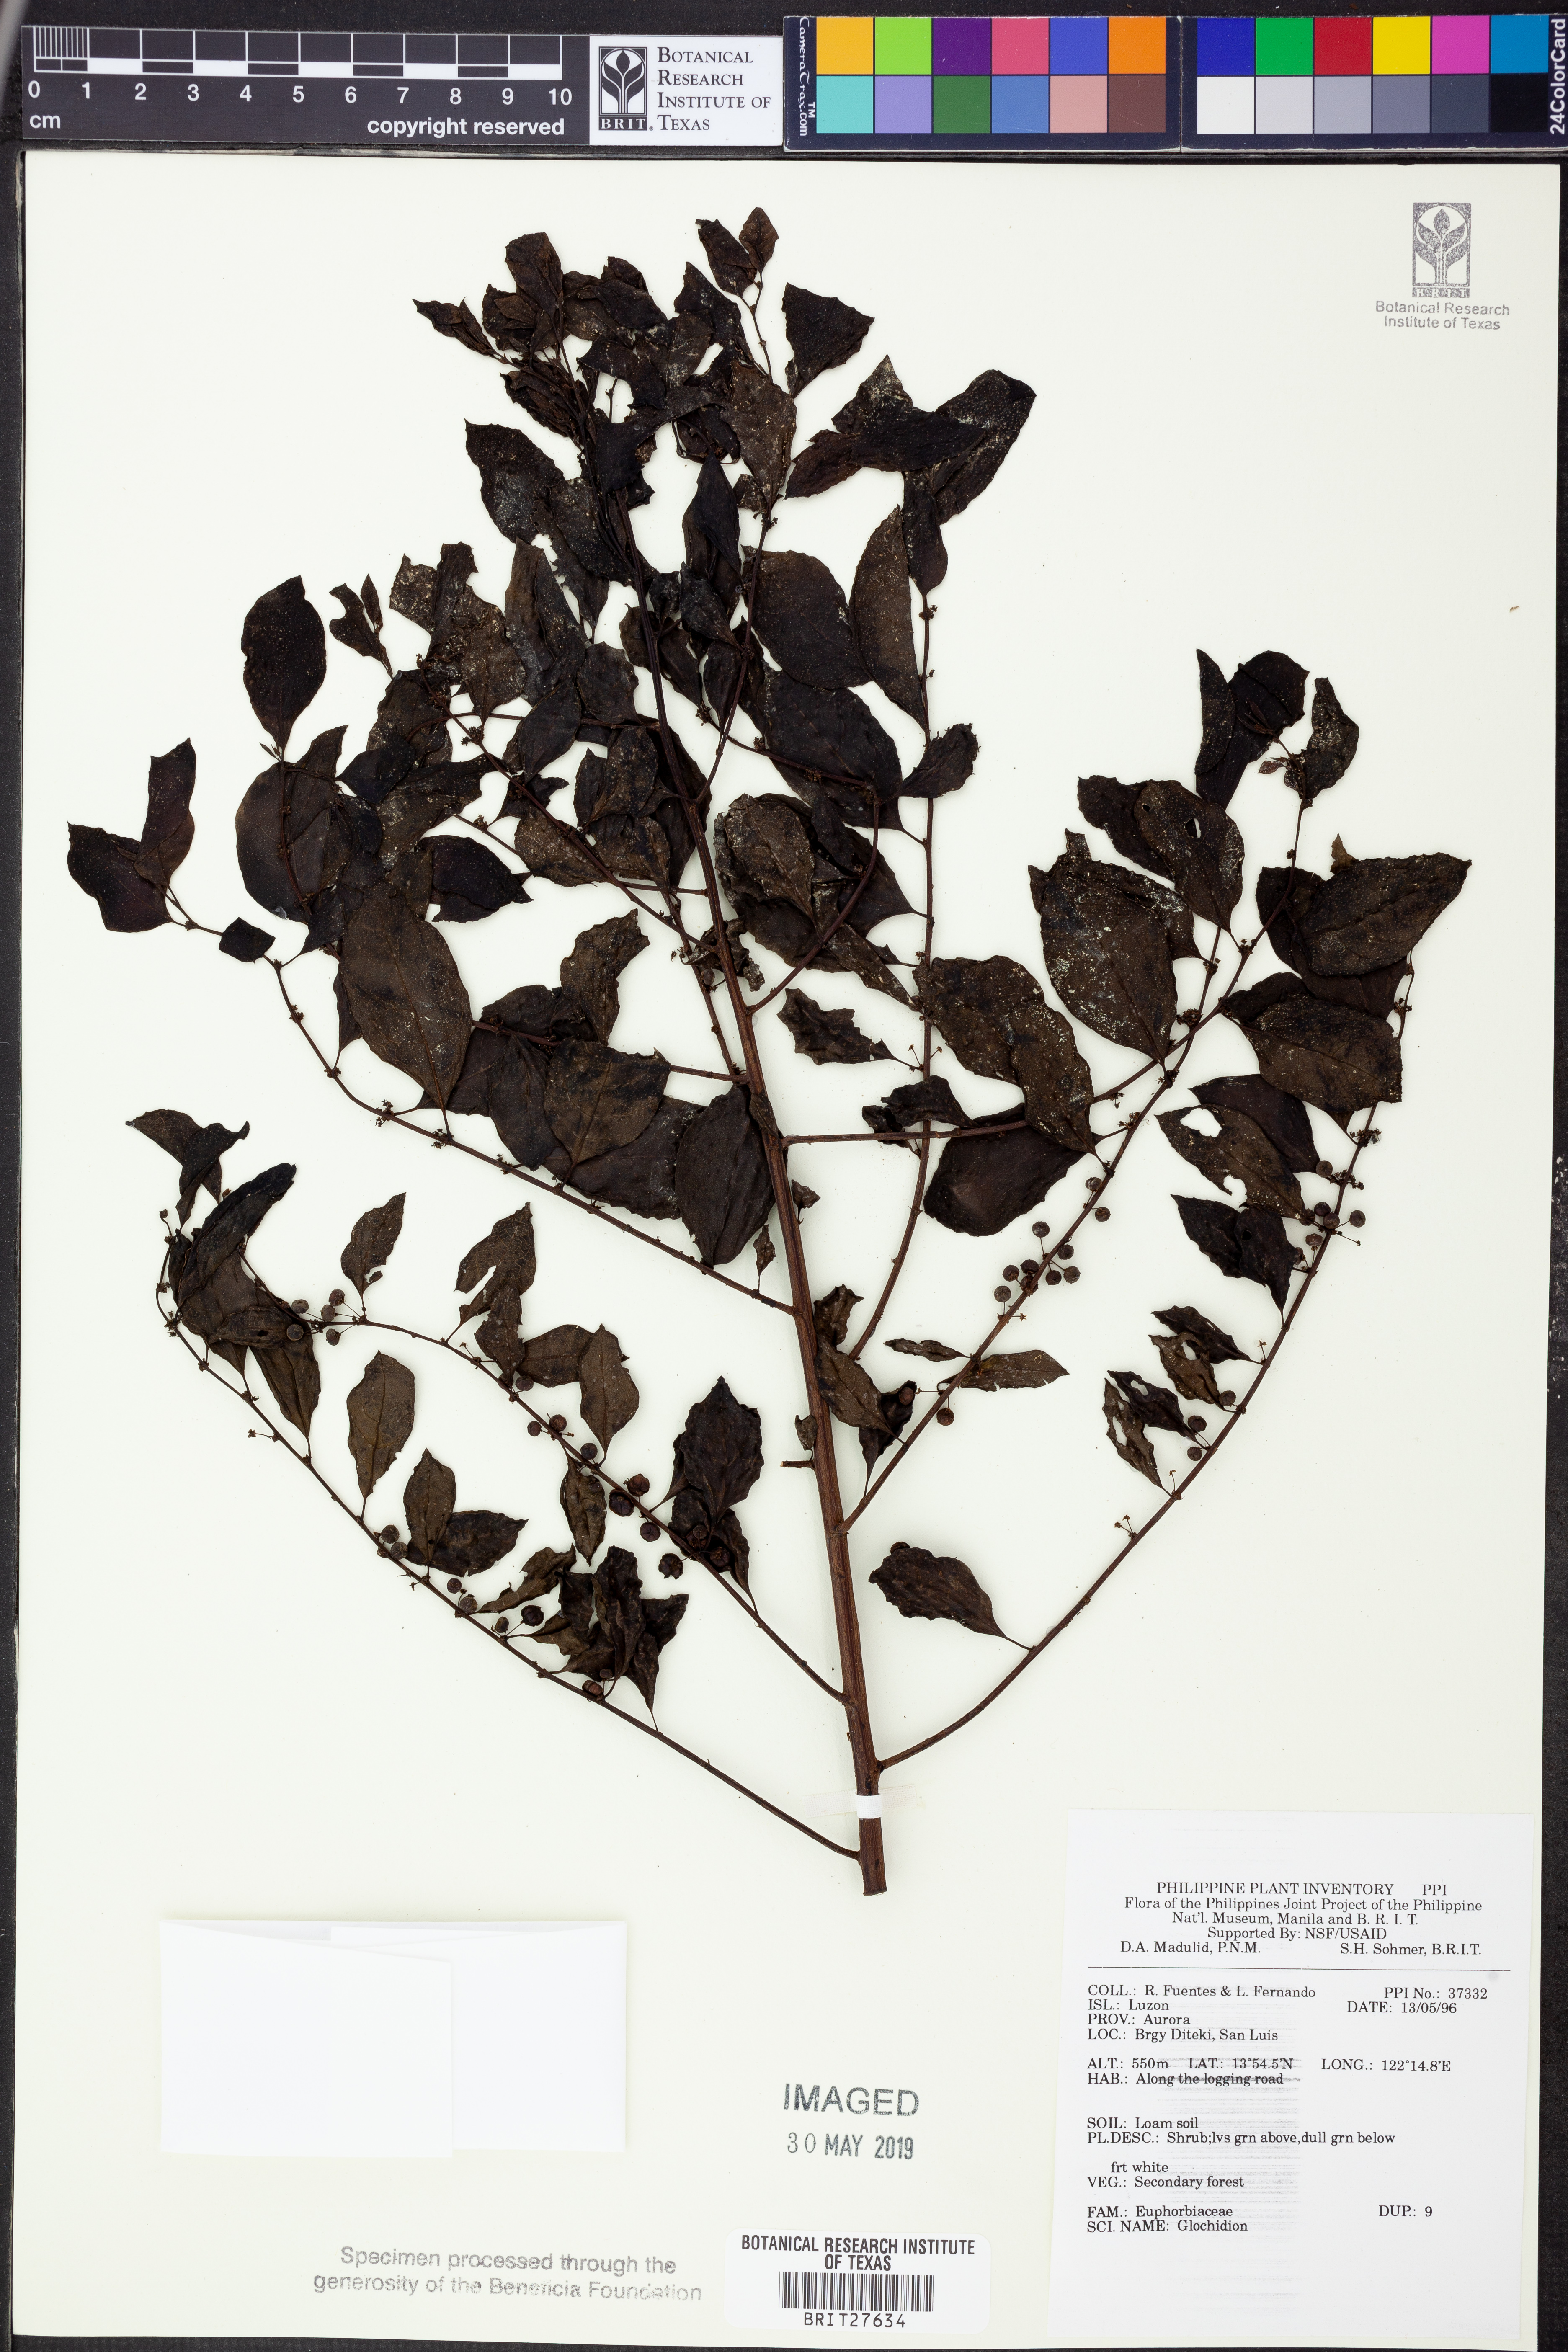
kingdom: Plantae
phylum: Tracheophyta
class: Magnoliopsida
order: Malpighiales
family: Phyllanthaceae
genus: Glochidion
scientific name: Glochidion
